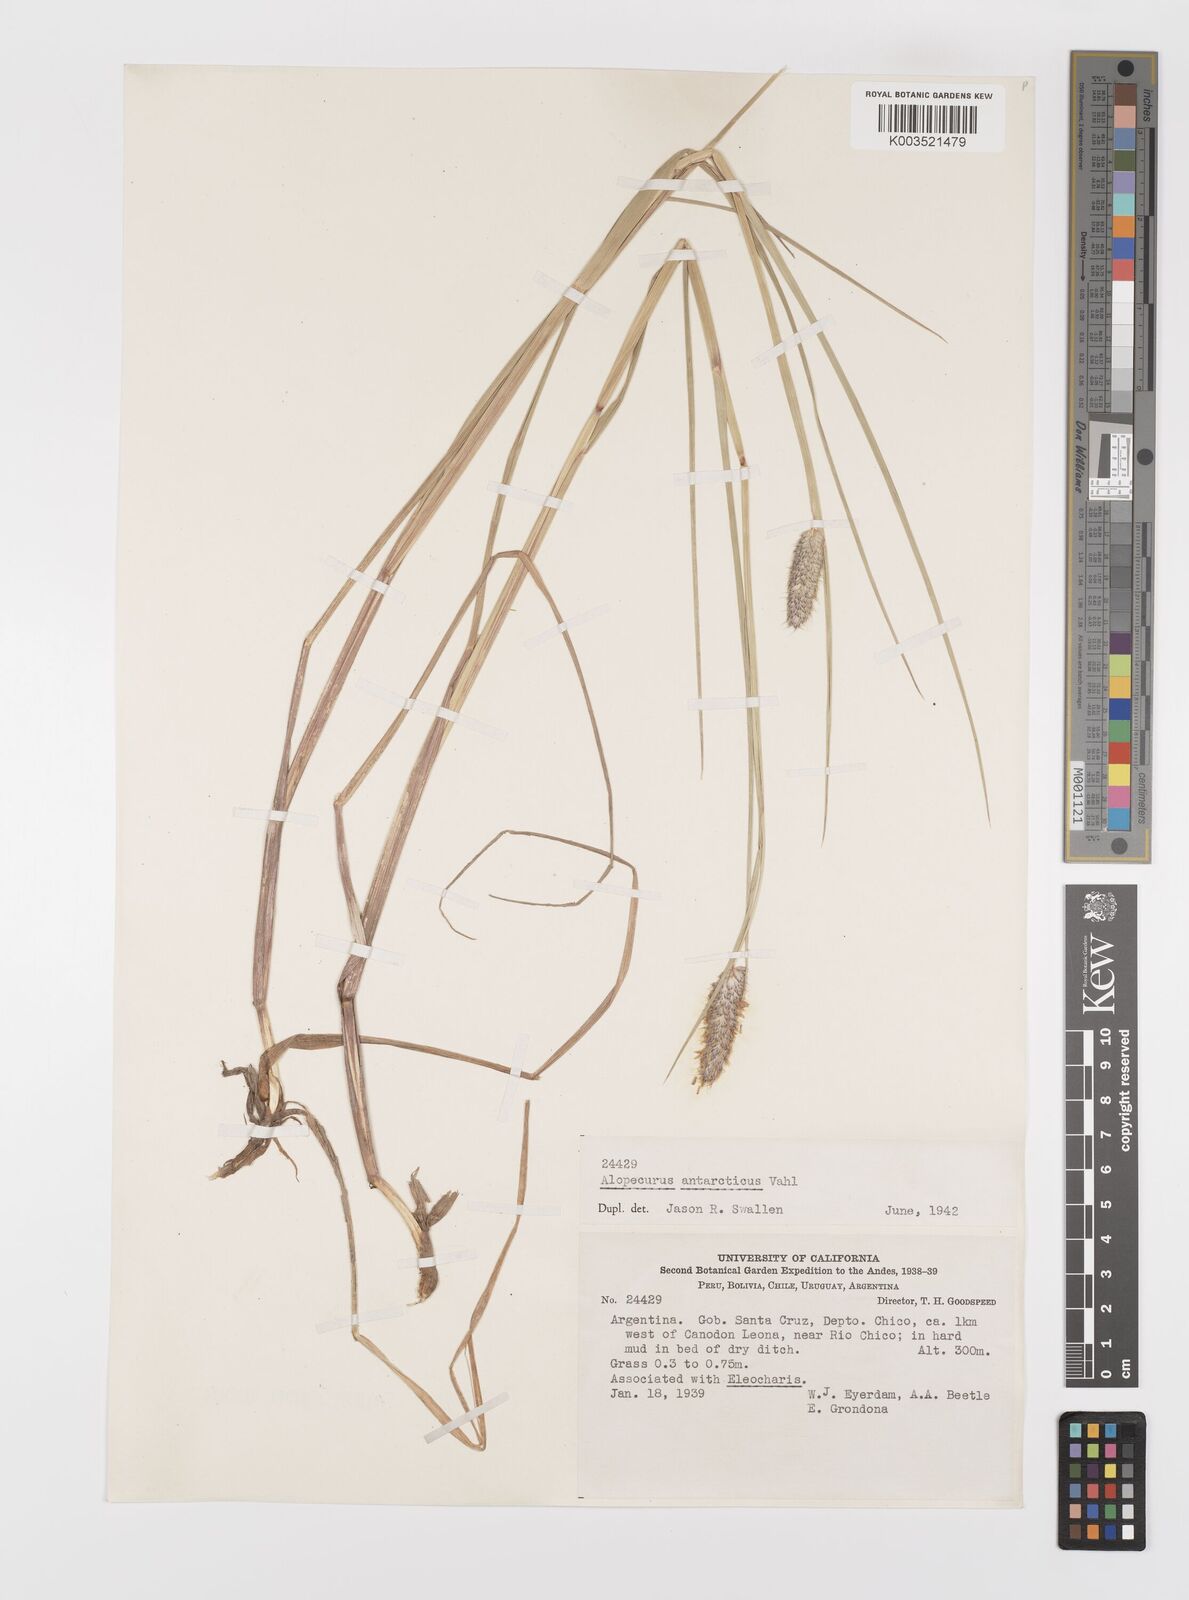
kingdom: Plantae
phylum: Tracheophyta
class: Liliopsida
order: Poales
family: Poaceae
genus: Alopecurus
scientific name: Alopecurus magellanicus
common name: Alpine foxtail
